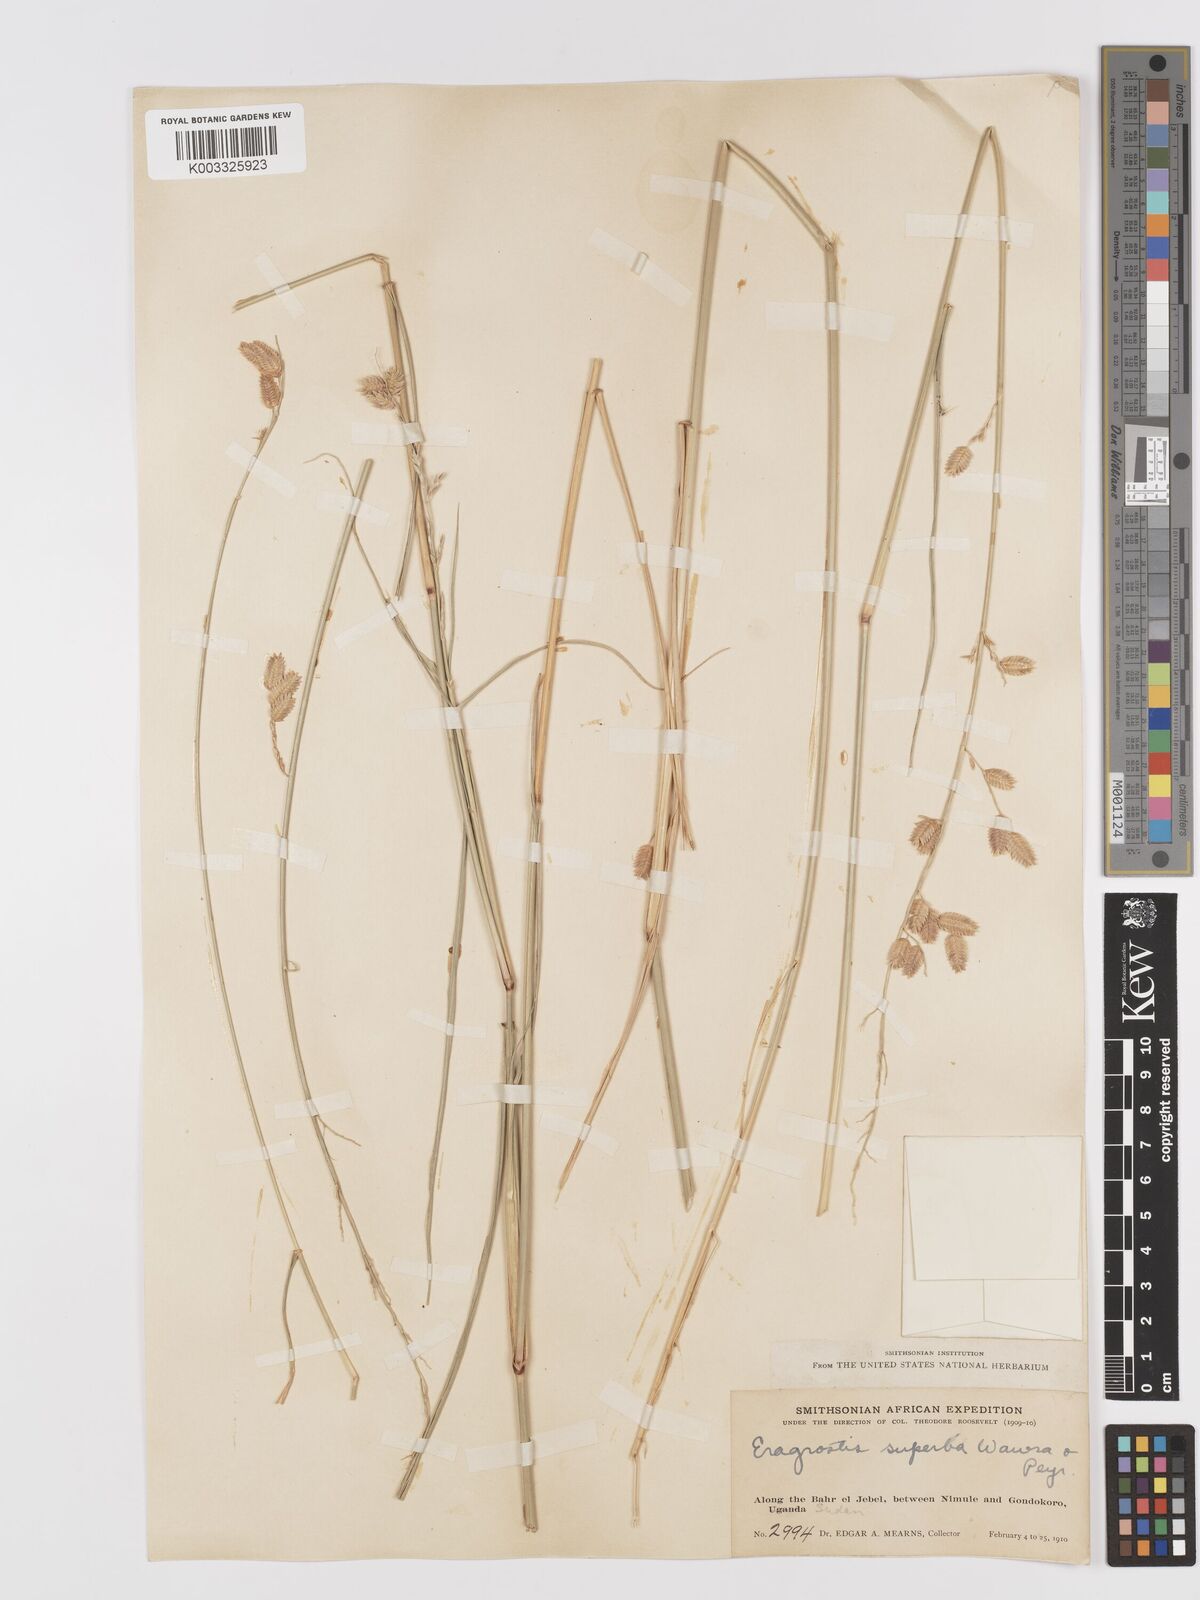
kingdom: Plantae
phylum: Tracheophyta
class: Liliopsida
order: Poales
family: Poaceae
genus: Eragrostis
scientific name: Eragrostis superba
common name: Wilman lovegrass
